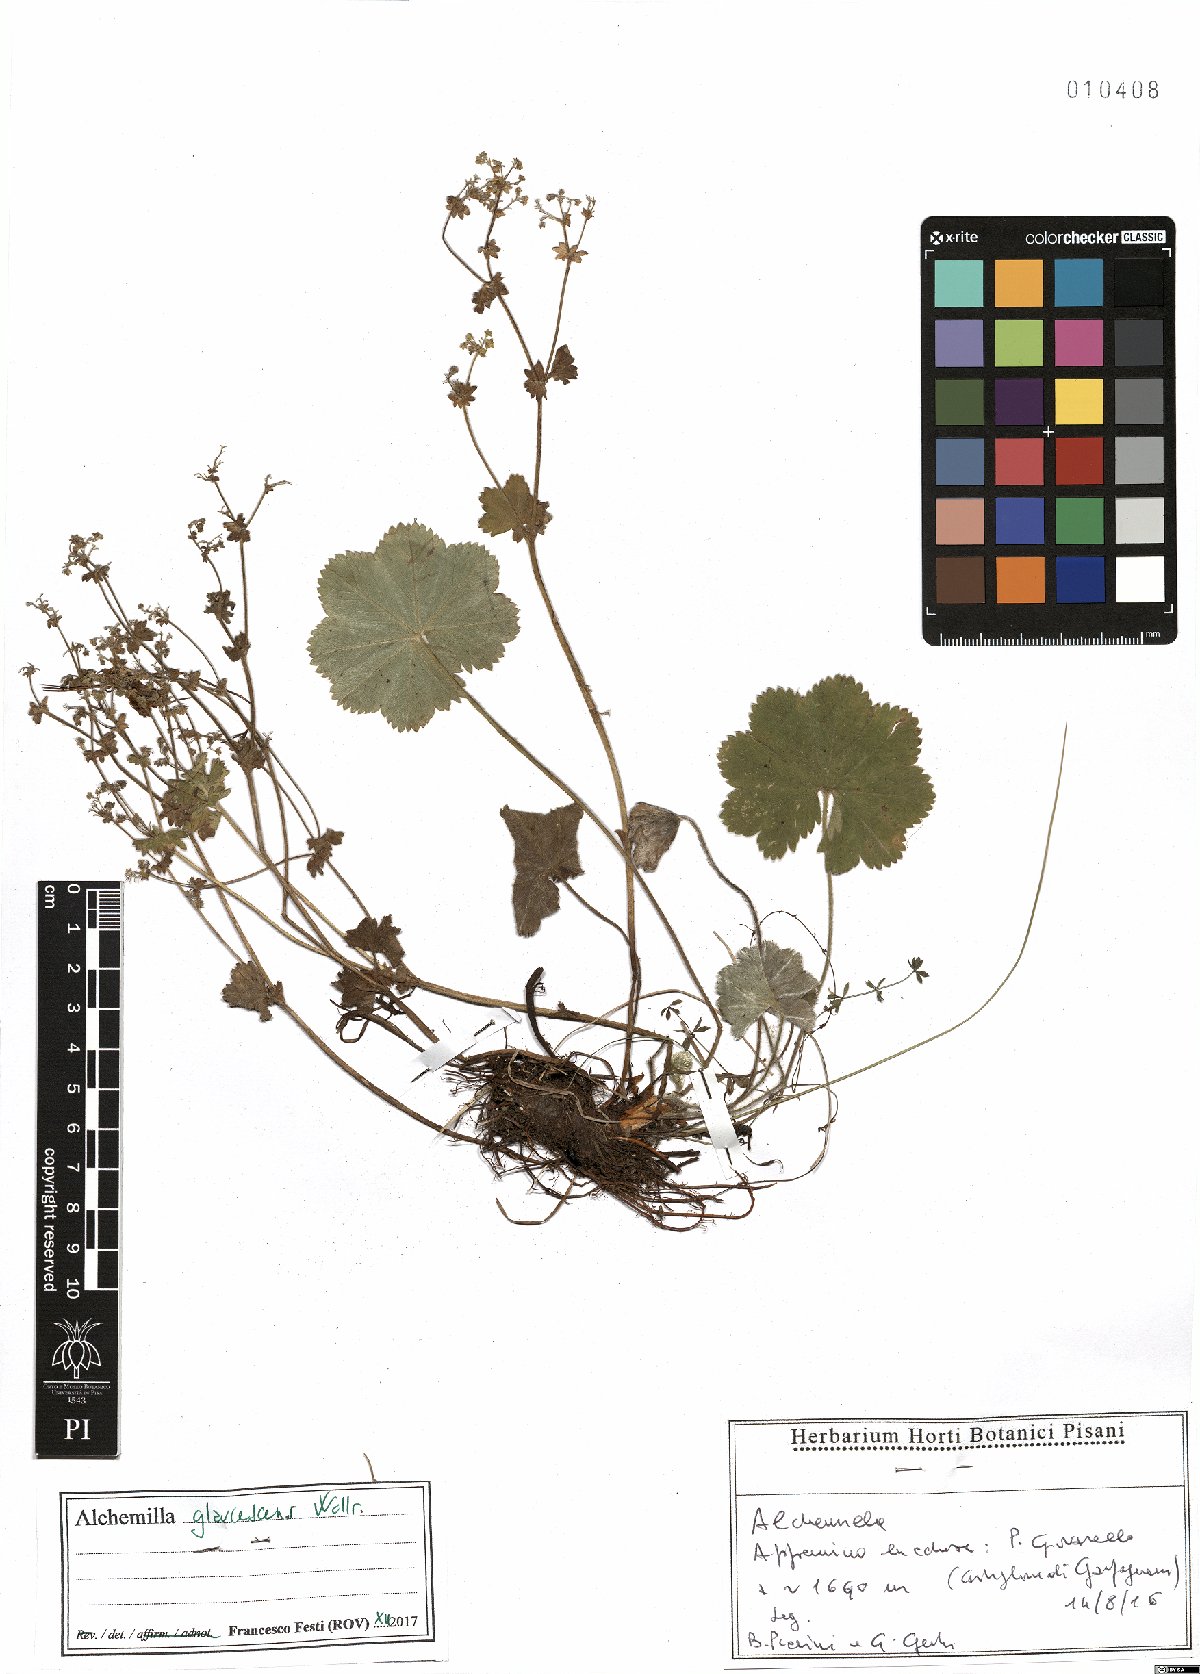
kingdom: Plantae
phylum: Tracheophyta
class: Magnoliopsida
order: Rosales
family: Rosaceae
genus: Alchemilla
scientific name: Alchemilla glaucescens
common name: Silky lady's mantle
